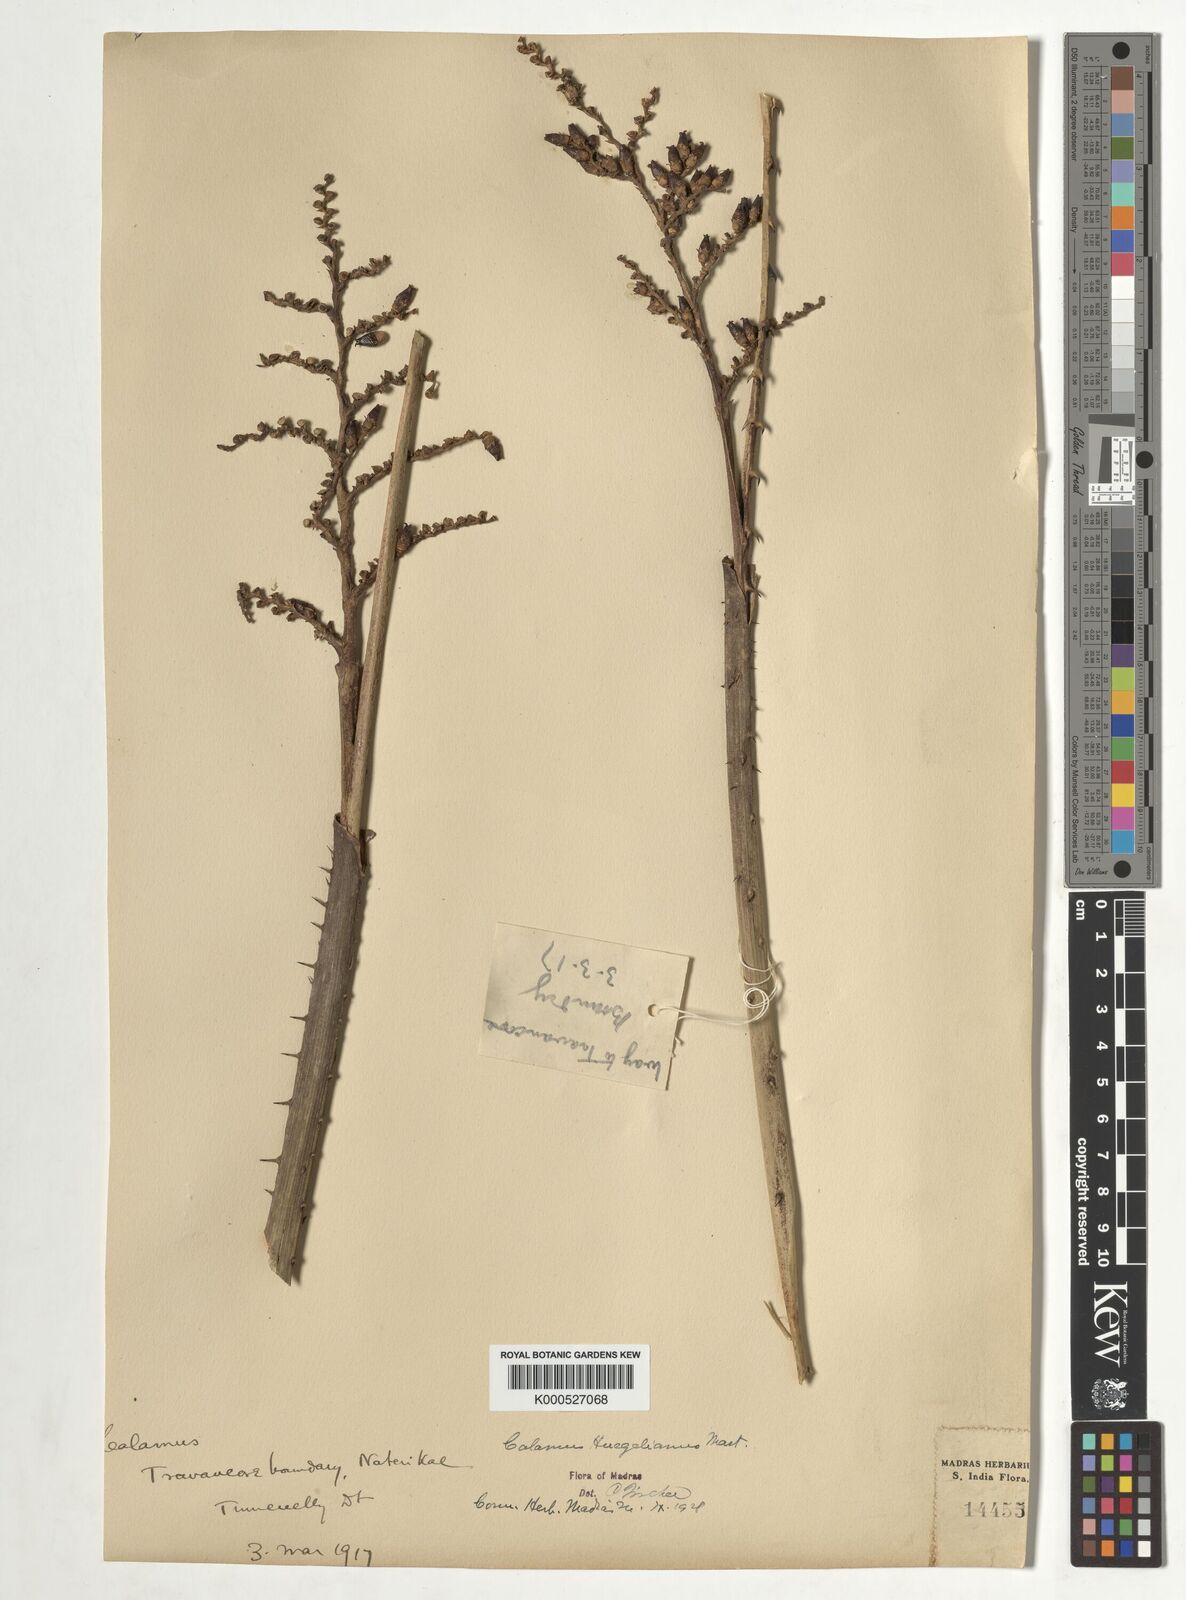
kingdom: Plantae
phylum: Tracheophyta
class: Liliopsida
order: Arecales
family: Arecaceae
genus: Calamus
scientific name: Calamus wightii
